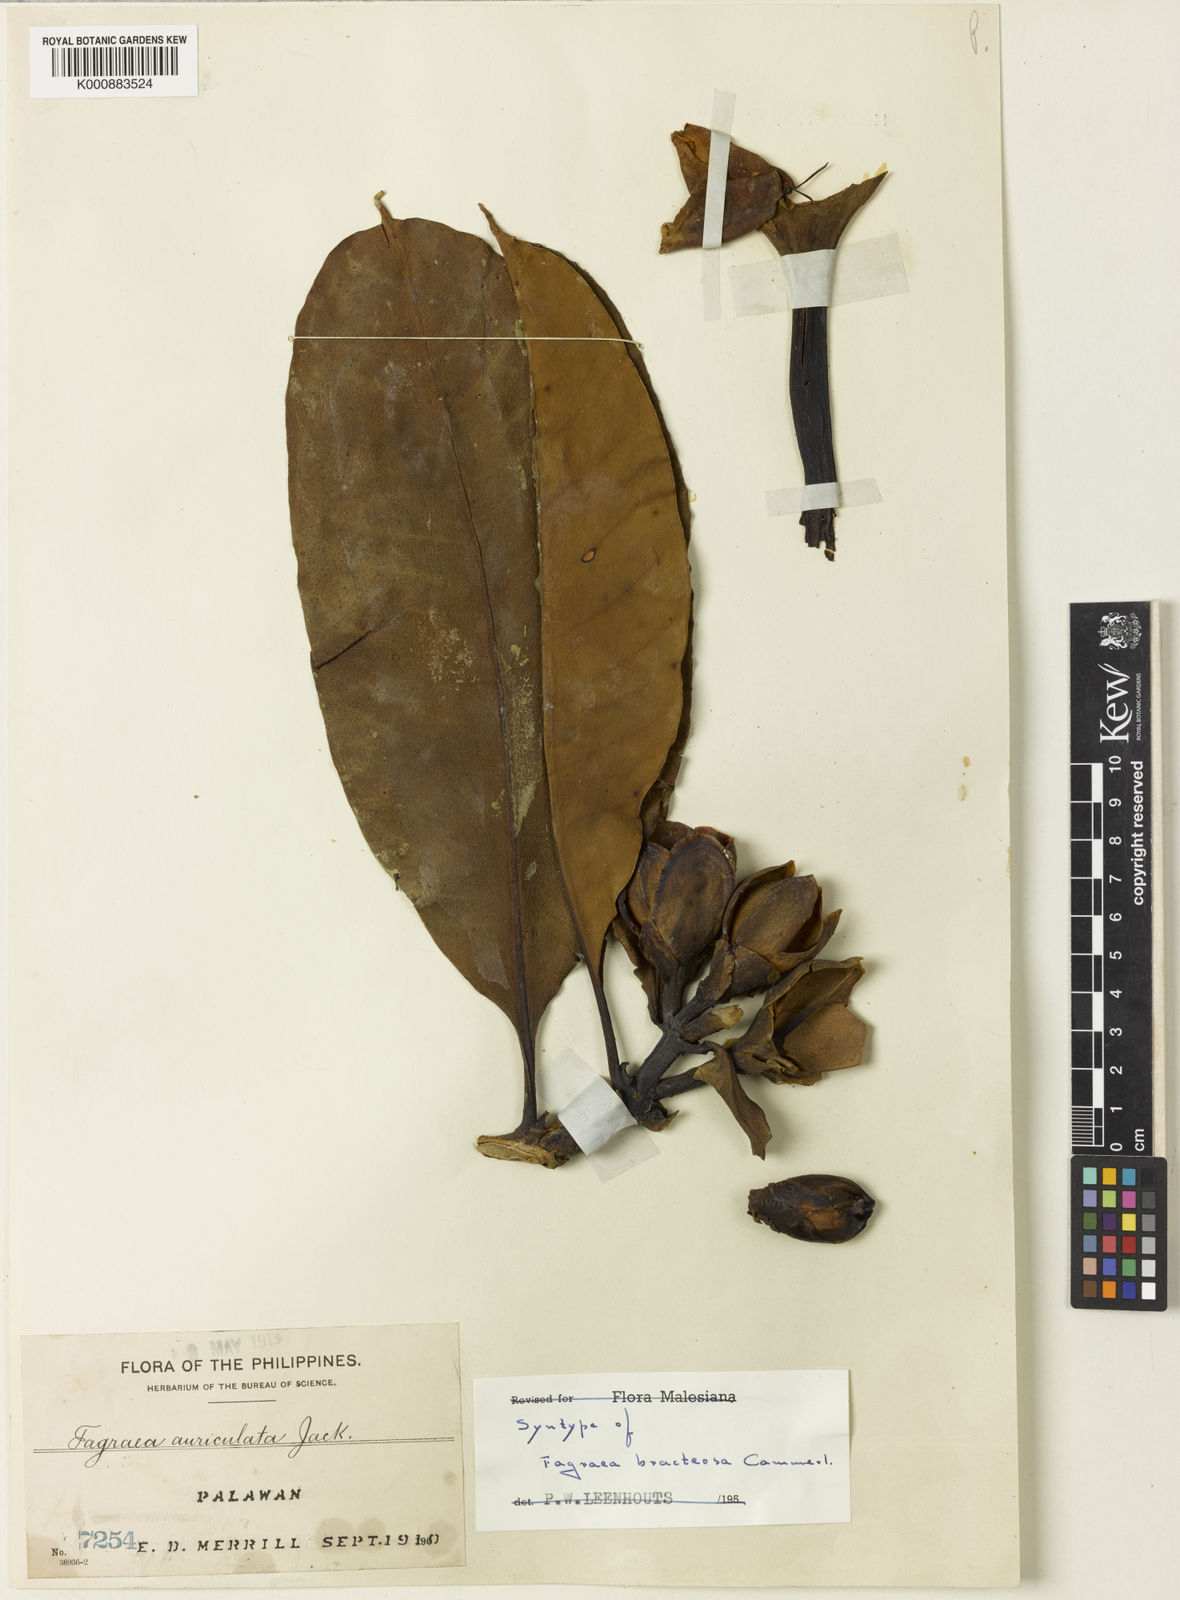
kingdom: Plantae
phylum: Tracheophyta
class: Magnoliopsida
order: Gentianales
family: Gentianaceae
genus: Fagraea
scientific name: Fagraea
